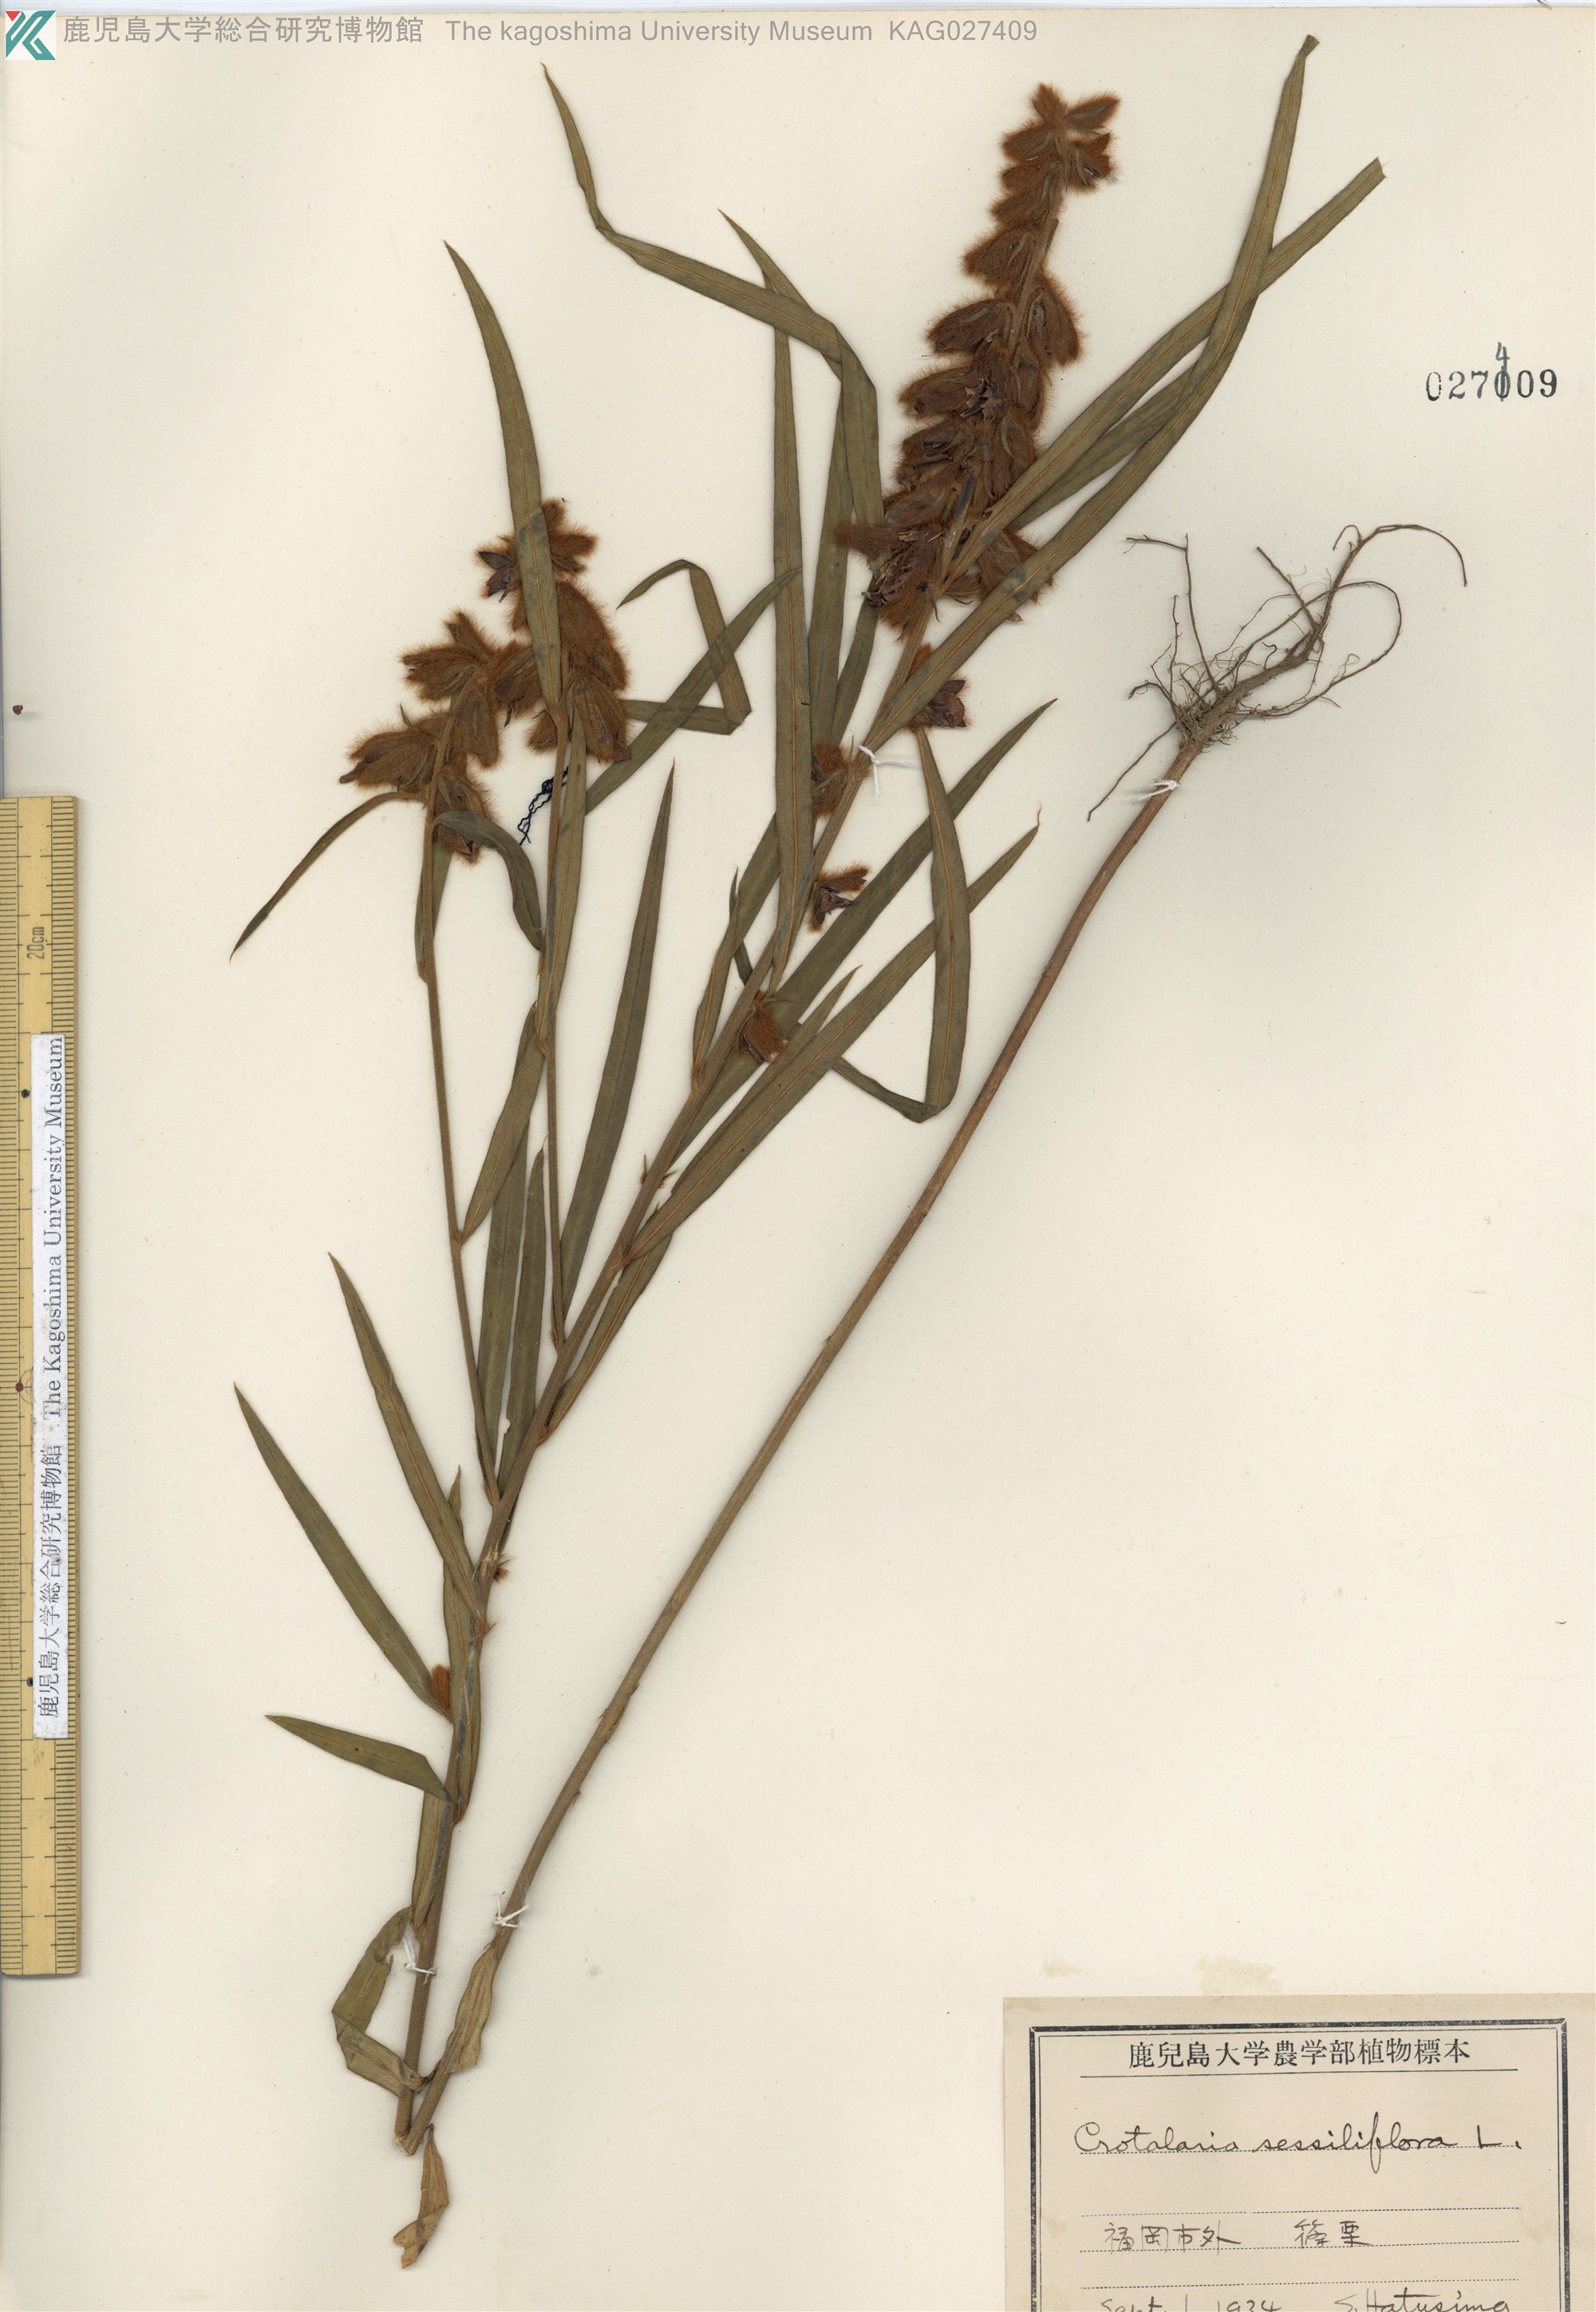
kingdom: Plantae
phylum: Tracheophyta
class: Magnoliopsida
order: Fabales
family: Fabaceae
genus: Crotalaria
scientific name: Crotalaria sessiliflora
